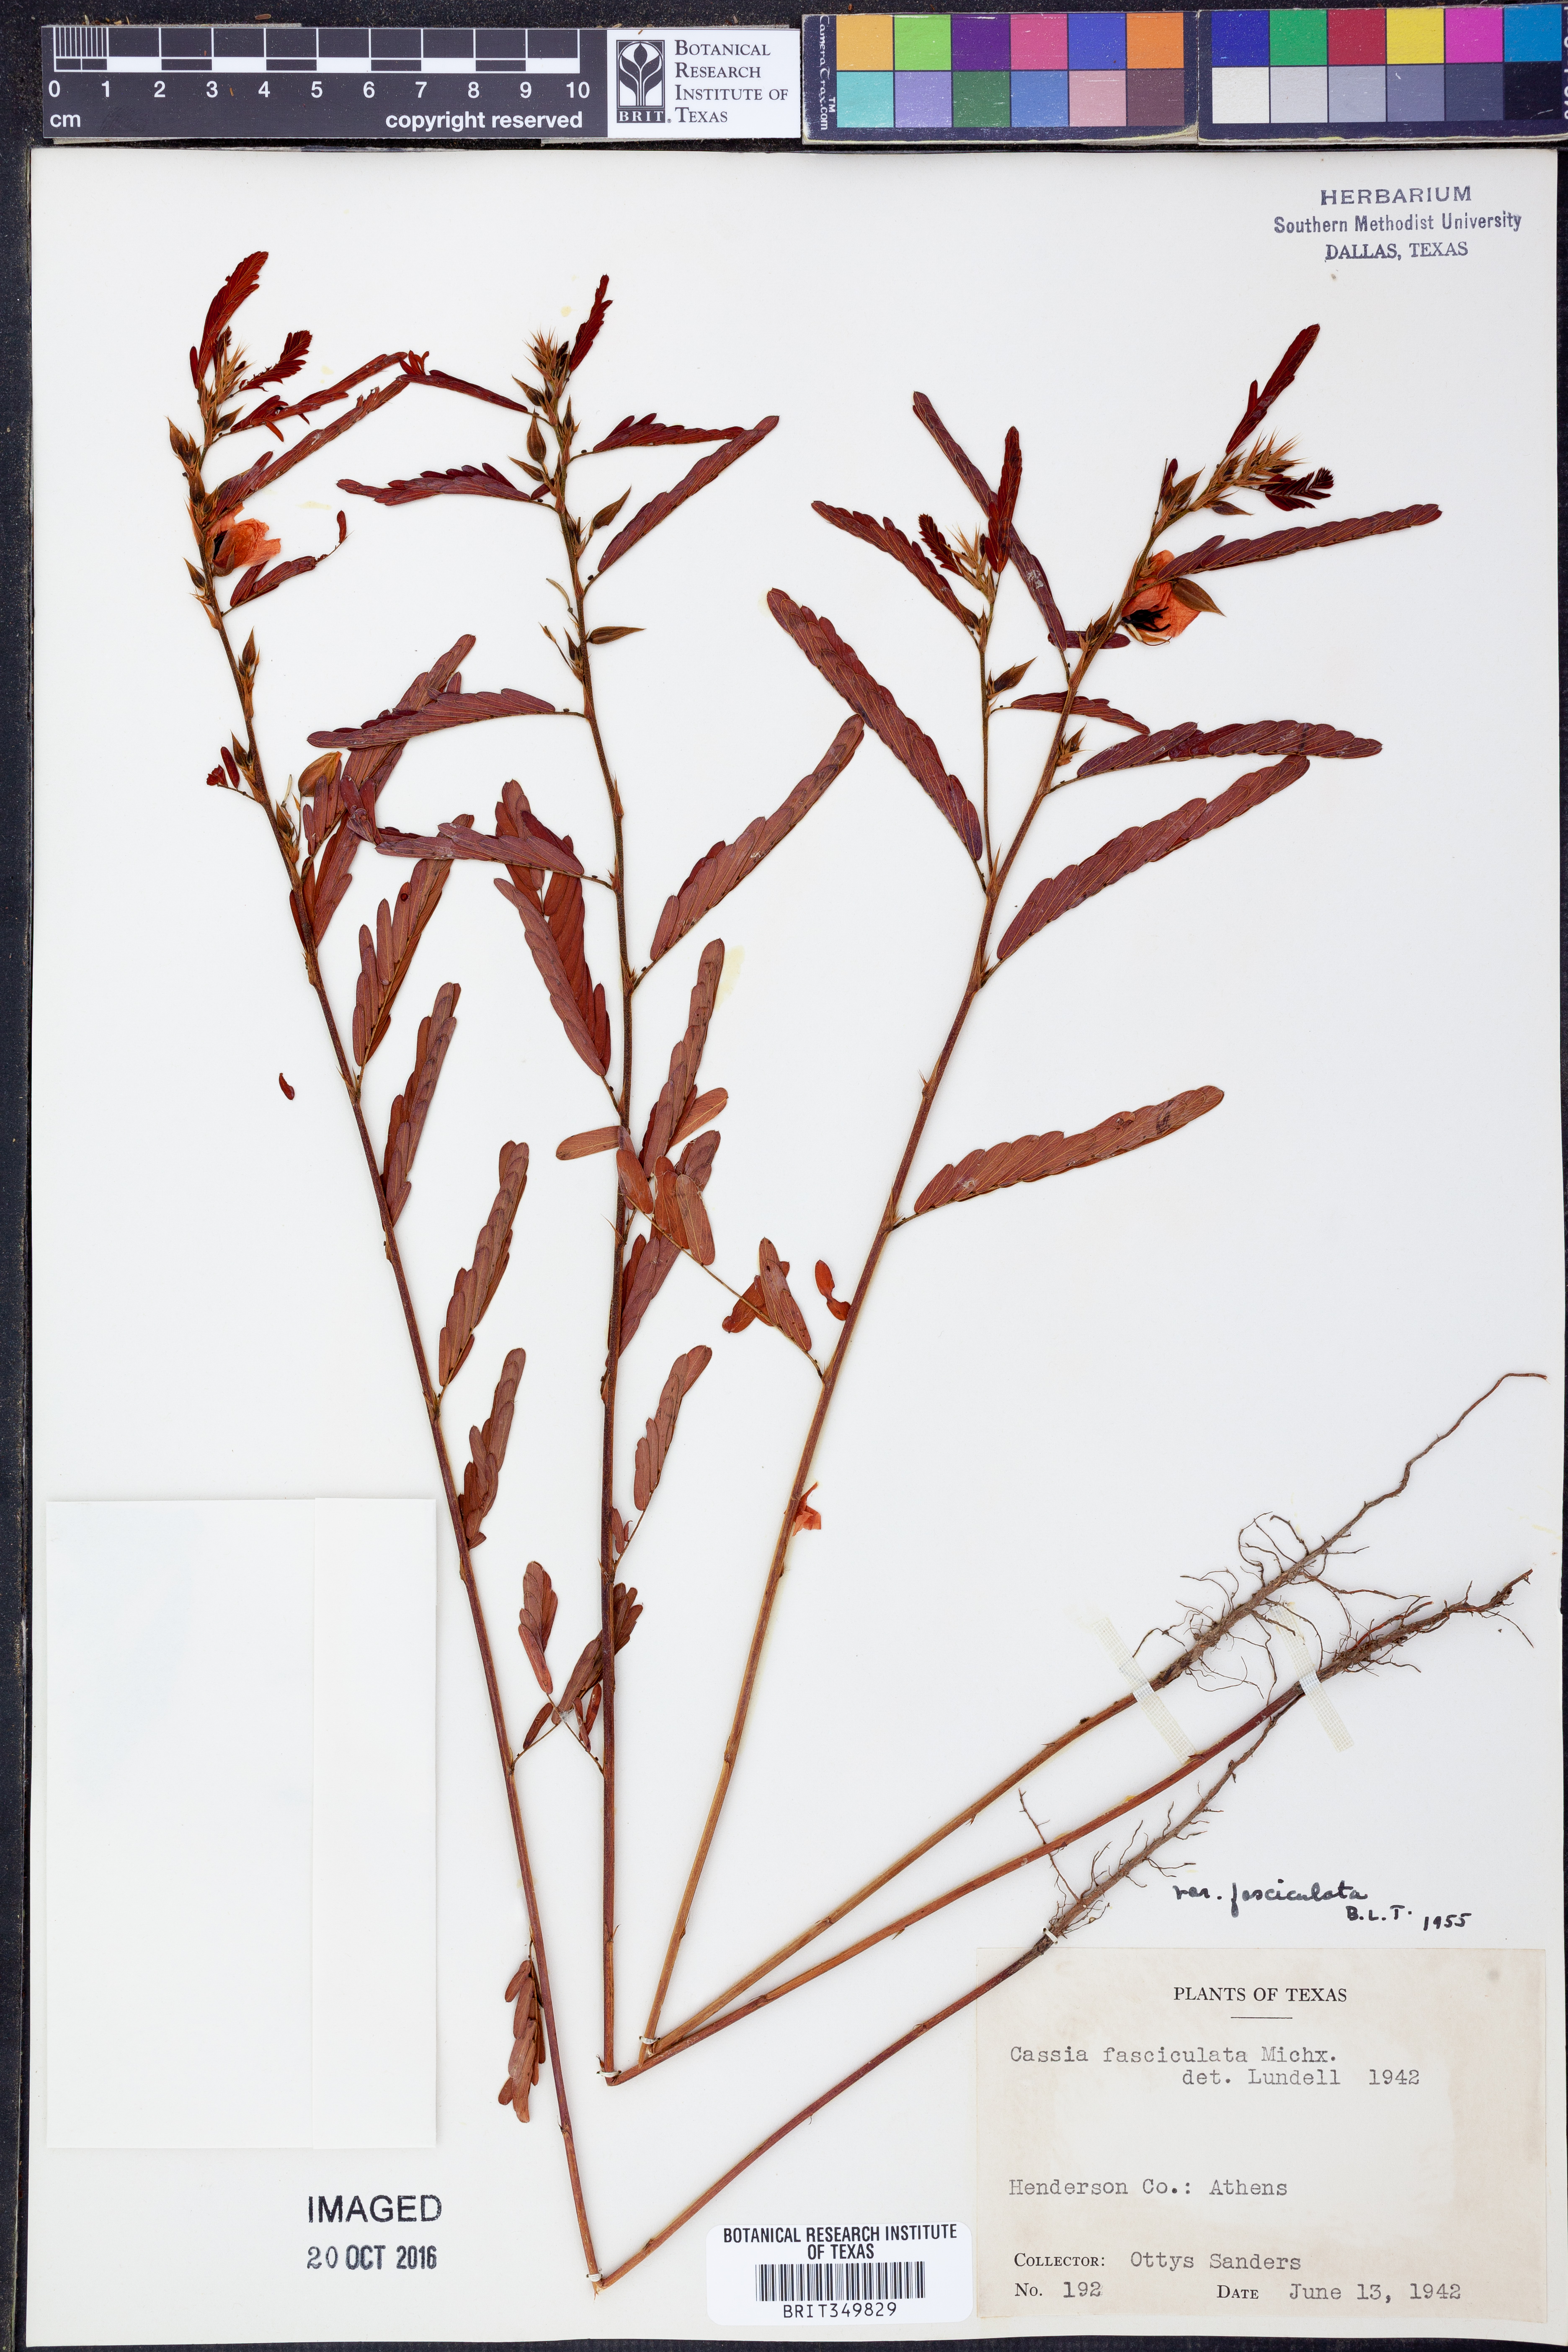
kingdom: Plantae
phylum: Tracheophyta
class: Magnoliopsida
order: Fabales
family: Fabaceae
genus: Chamaecrista
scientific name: Chamaecrista fasciculata
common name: Golden cassia
